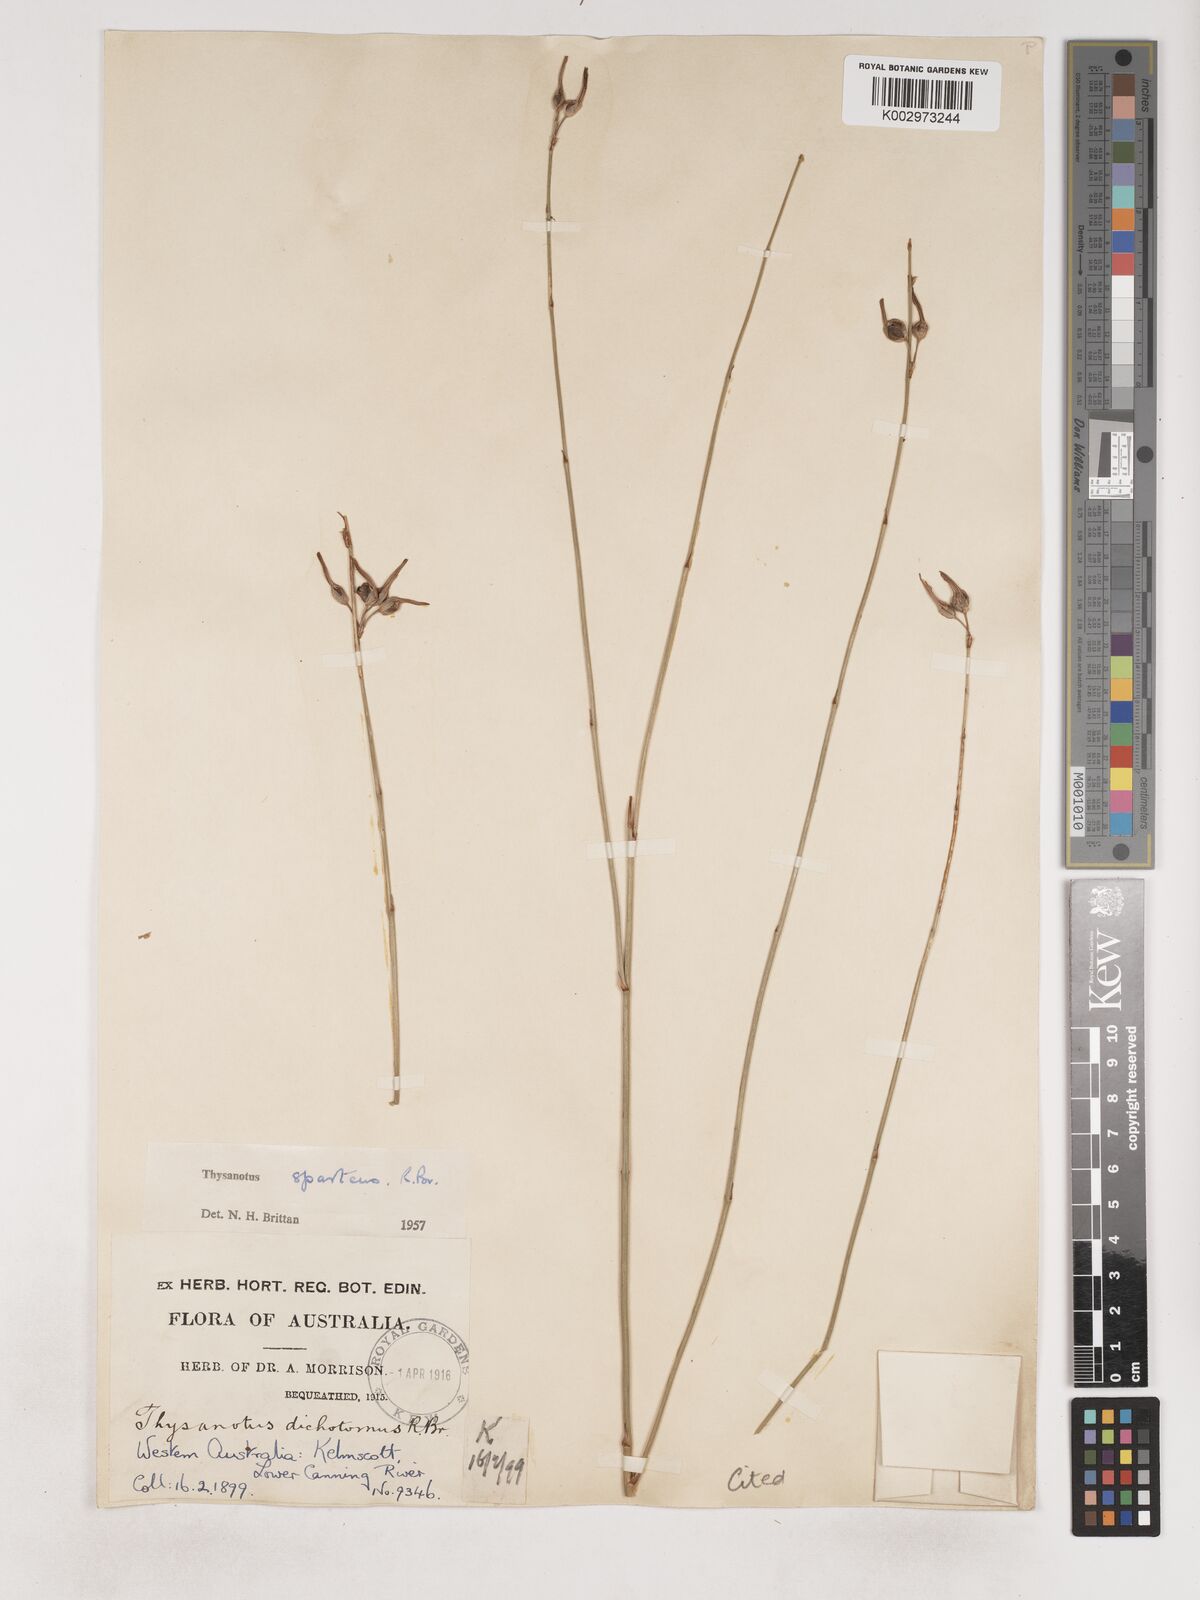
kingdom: Plantae
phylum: Tracheophyta
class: Liliopsida
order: Asparagales
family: Asparagaceae
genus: Thysanotus
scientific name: Thysanotus sparteus
